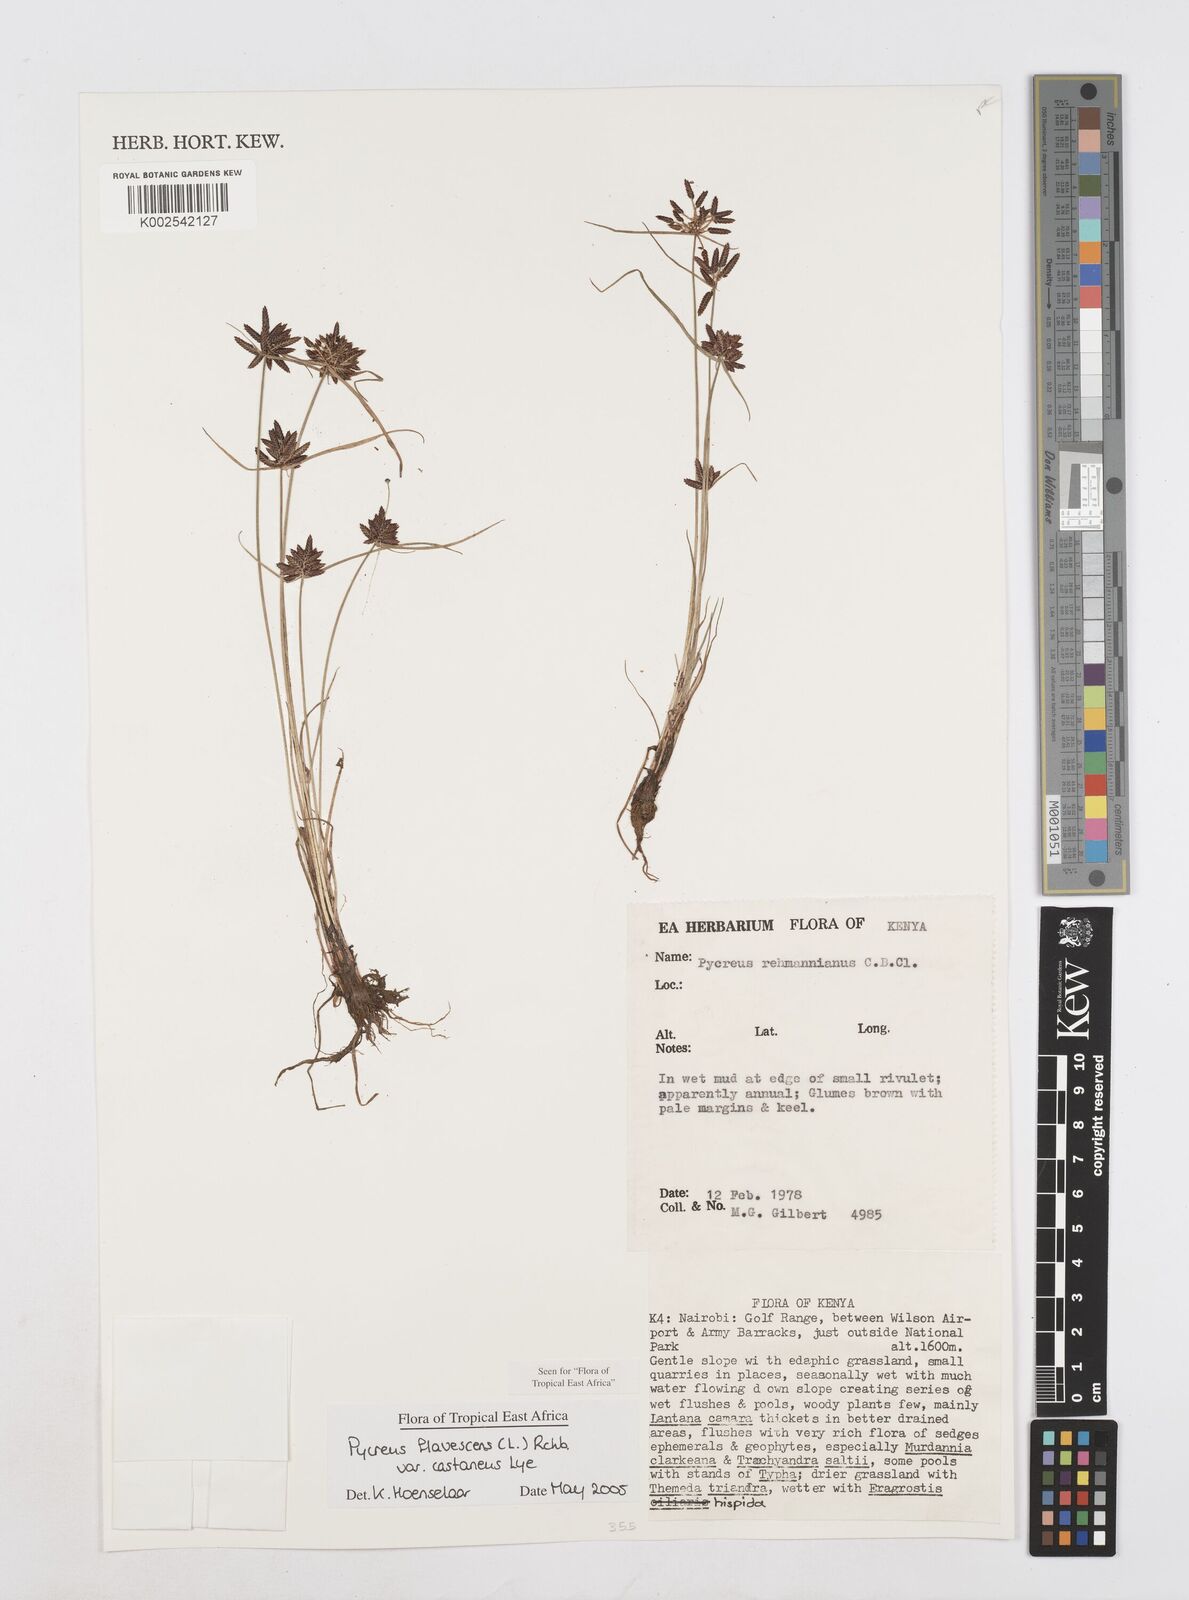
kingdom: Plantae
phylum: Tracheophyta
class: Liliopsida
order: Poales
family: Cyperaceae
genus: Cyperus
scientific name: Cyperus flavescens
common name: Yellow galingale
